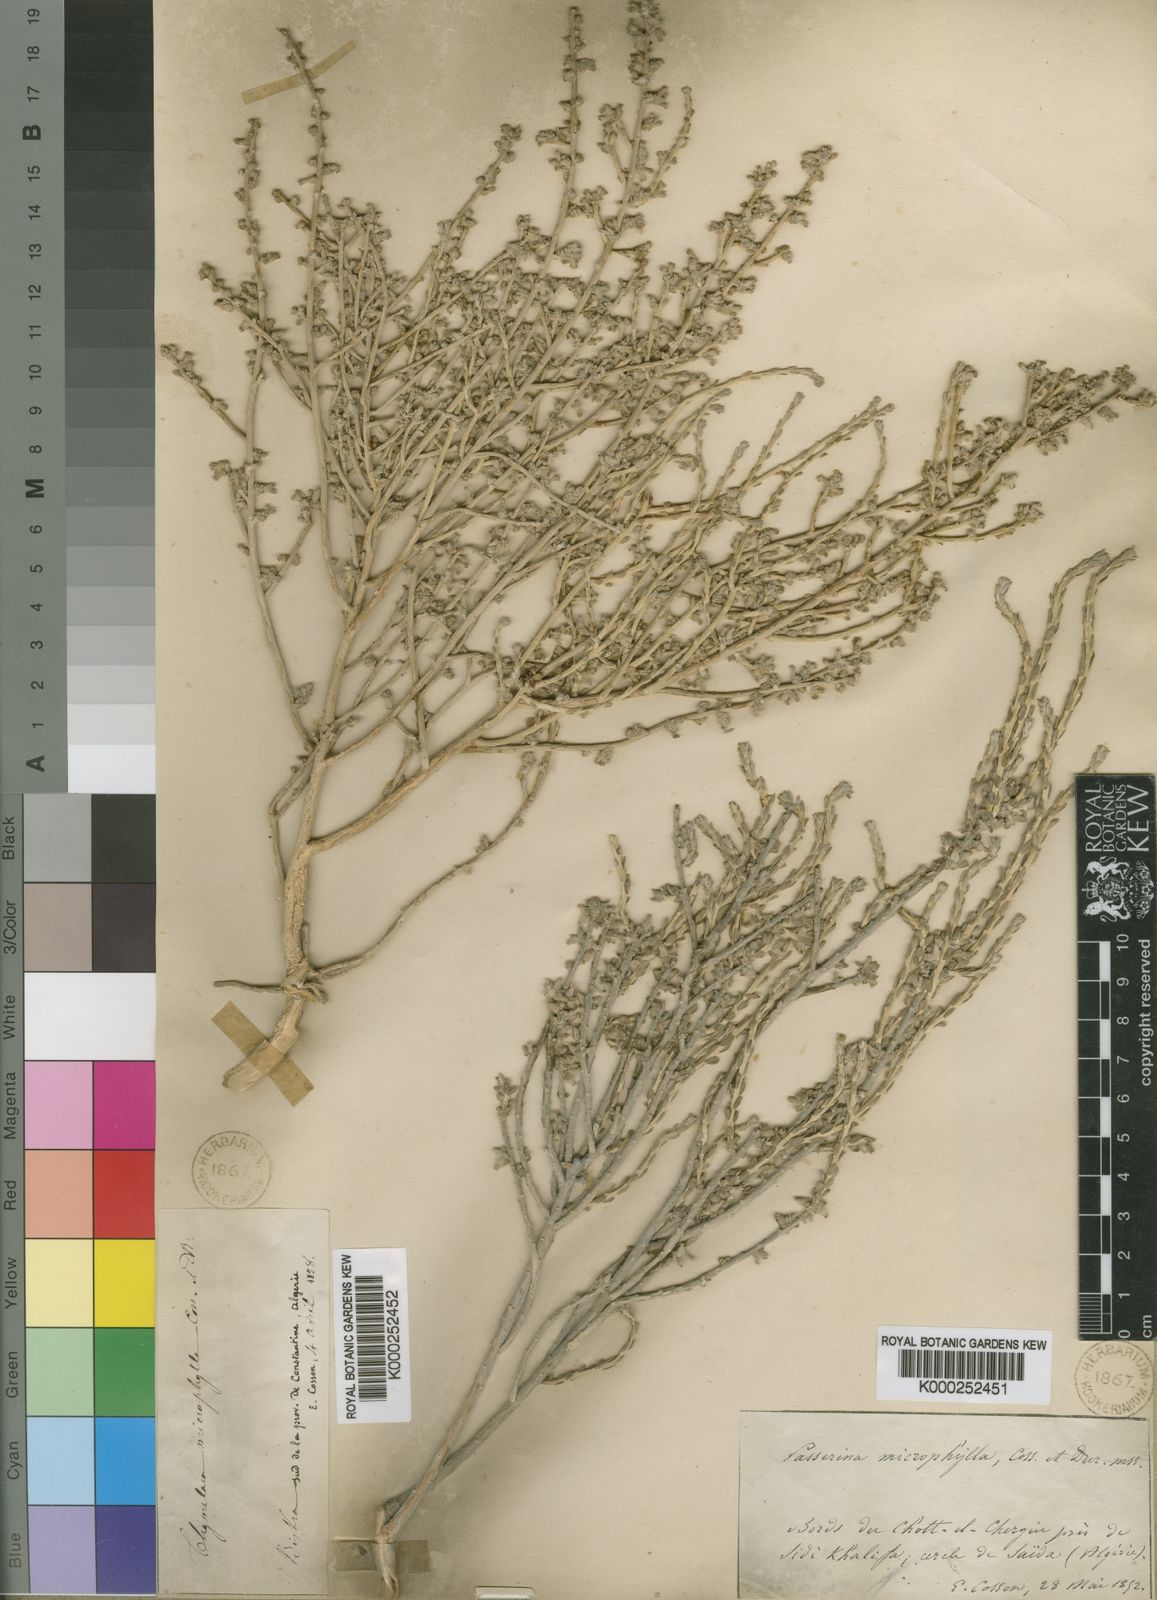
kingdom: Plantae
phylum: Tracheophyta
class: Magnoliopsida
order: Malvales
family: Thymelaeaceae
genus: Thymelaea
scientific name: Thymelaea microphylla
